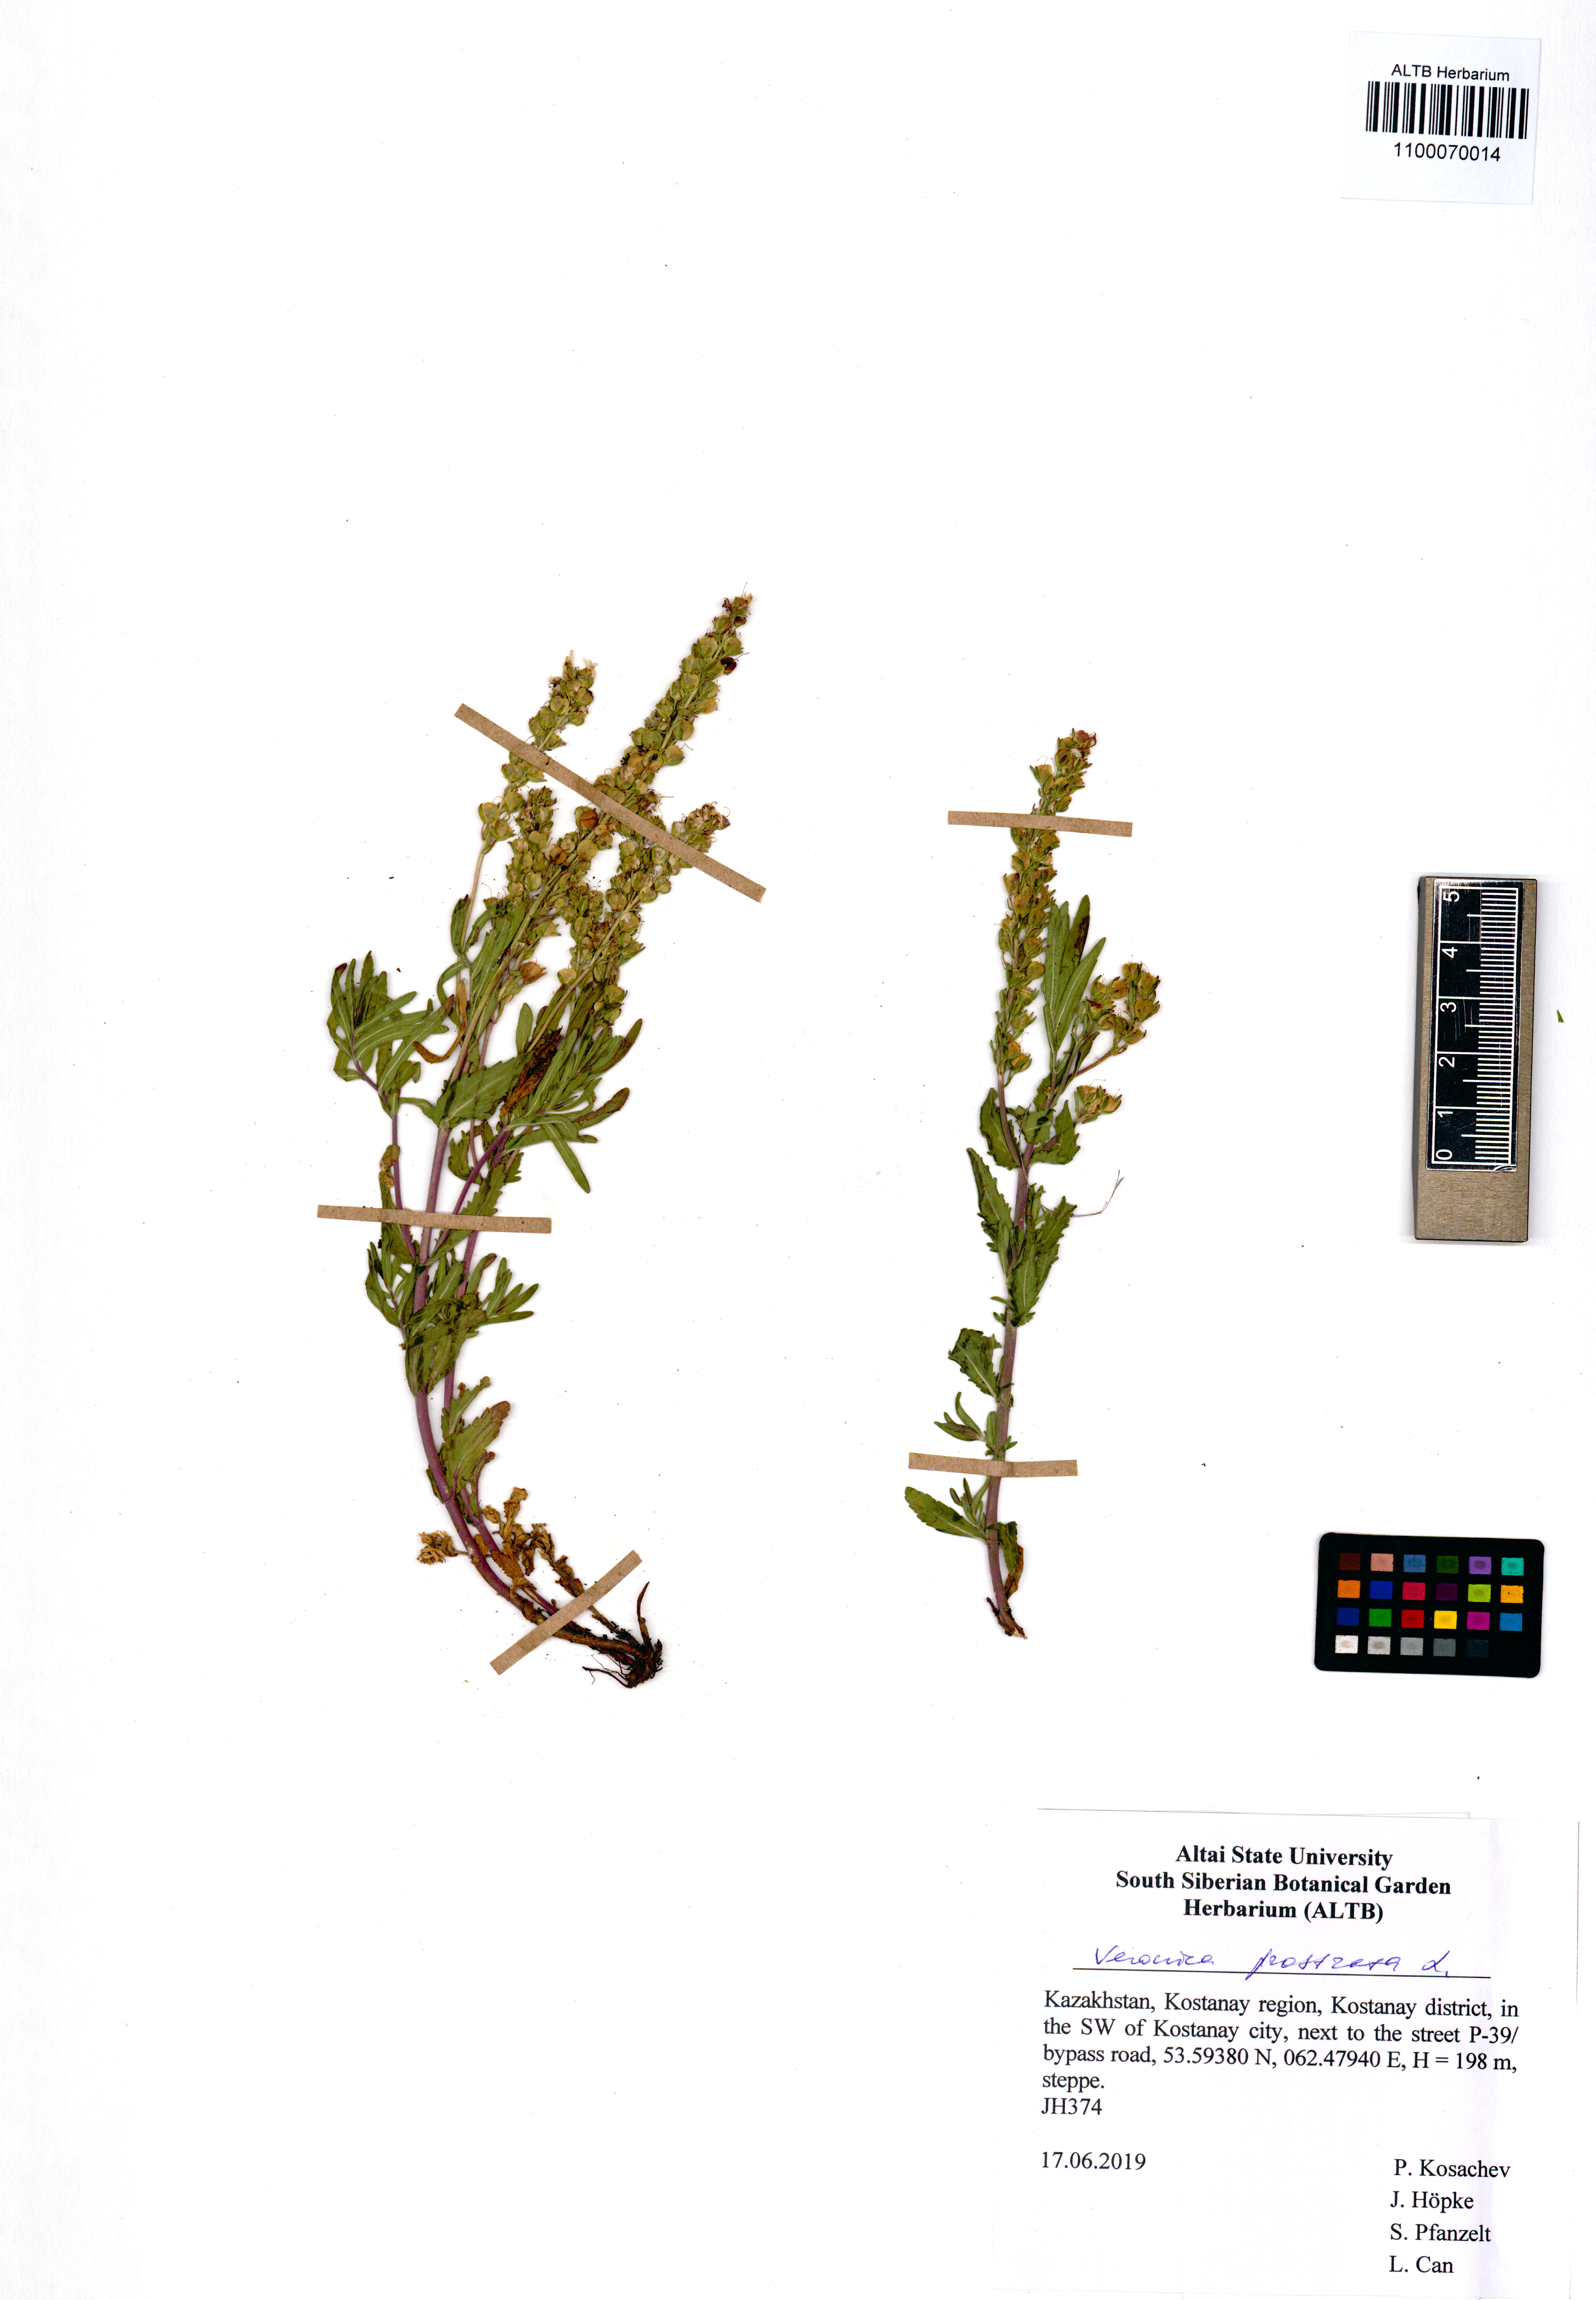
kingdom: Plantae
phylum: Tracheophyta
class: Magnoliopsida
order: Lamiales
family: Plantaginaceae
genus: Veronica
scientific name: Veronica prostrata
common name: Prostrate speedwell
